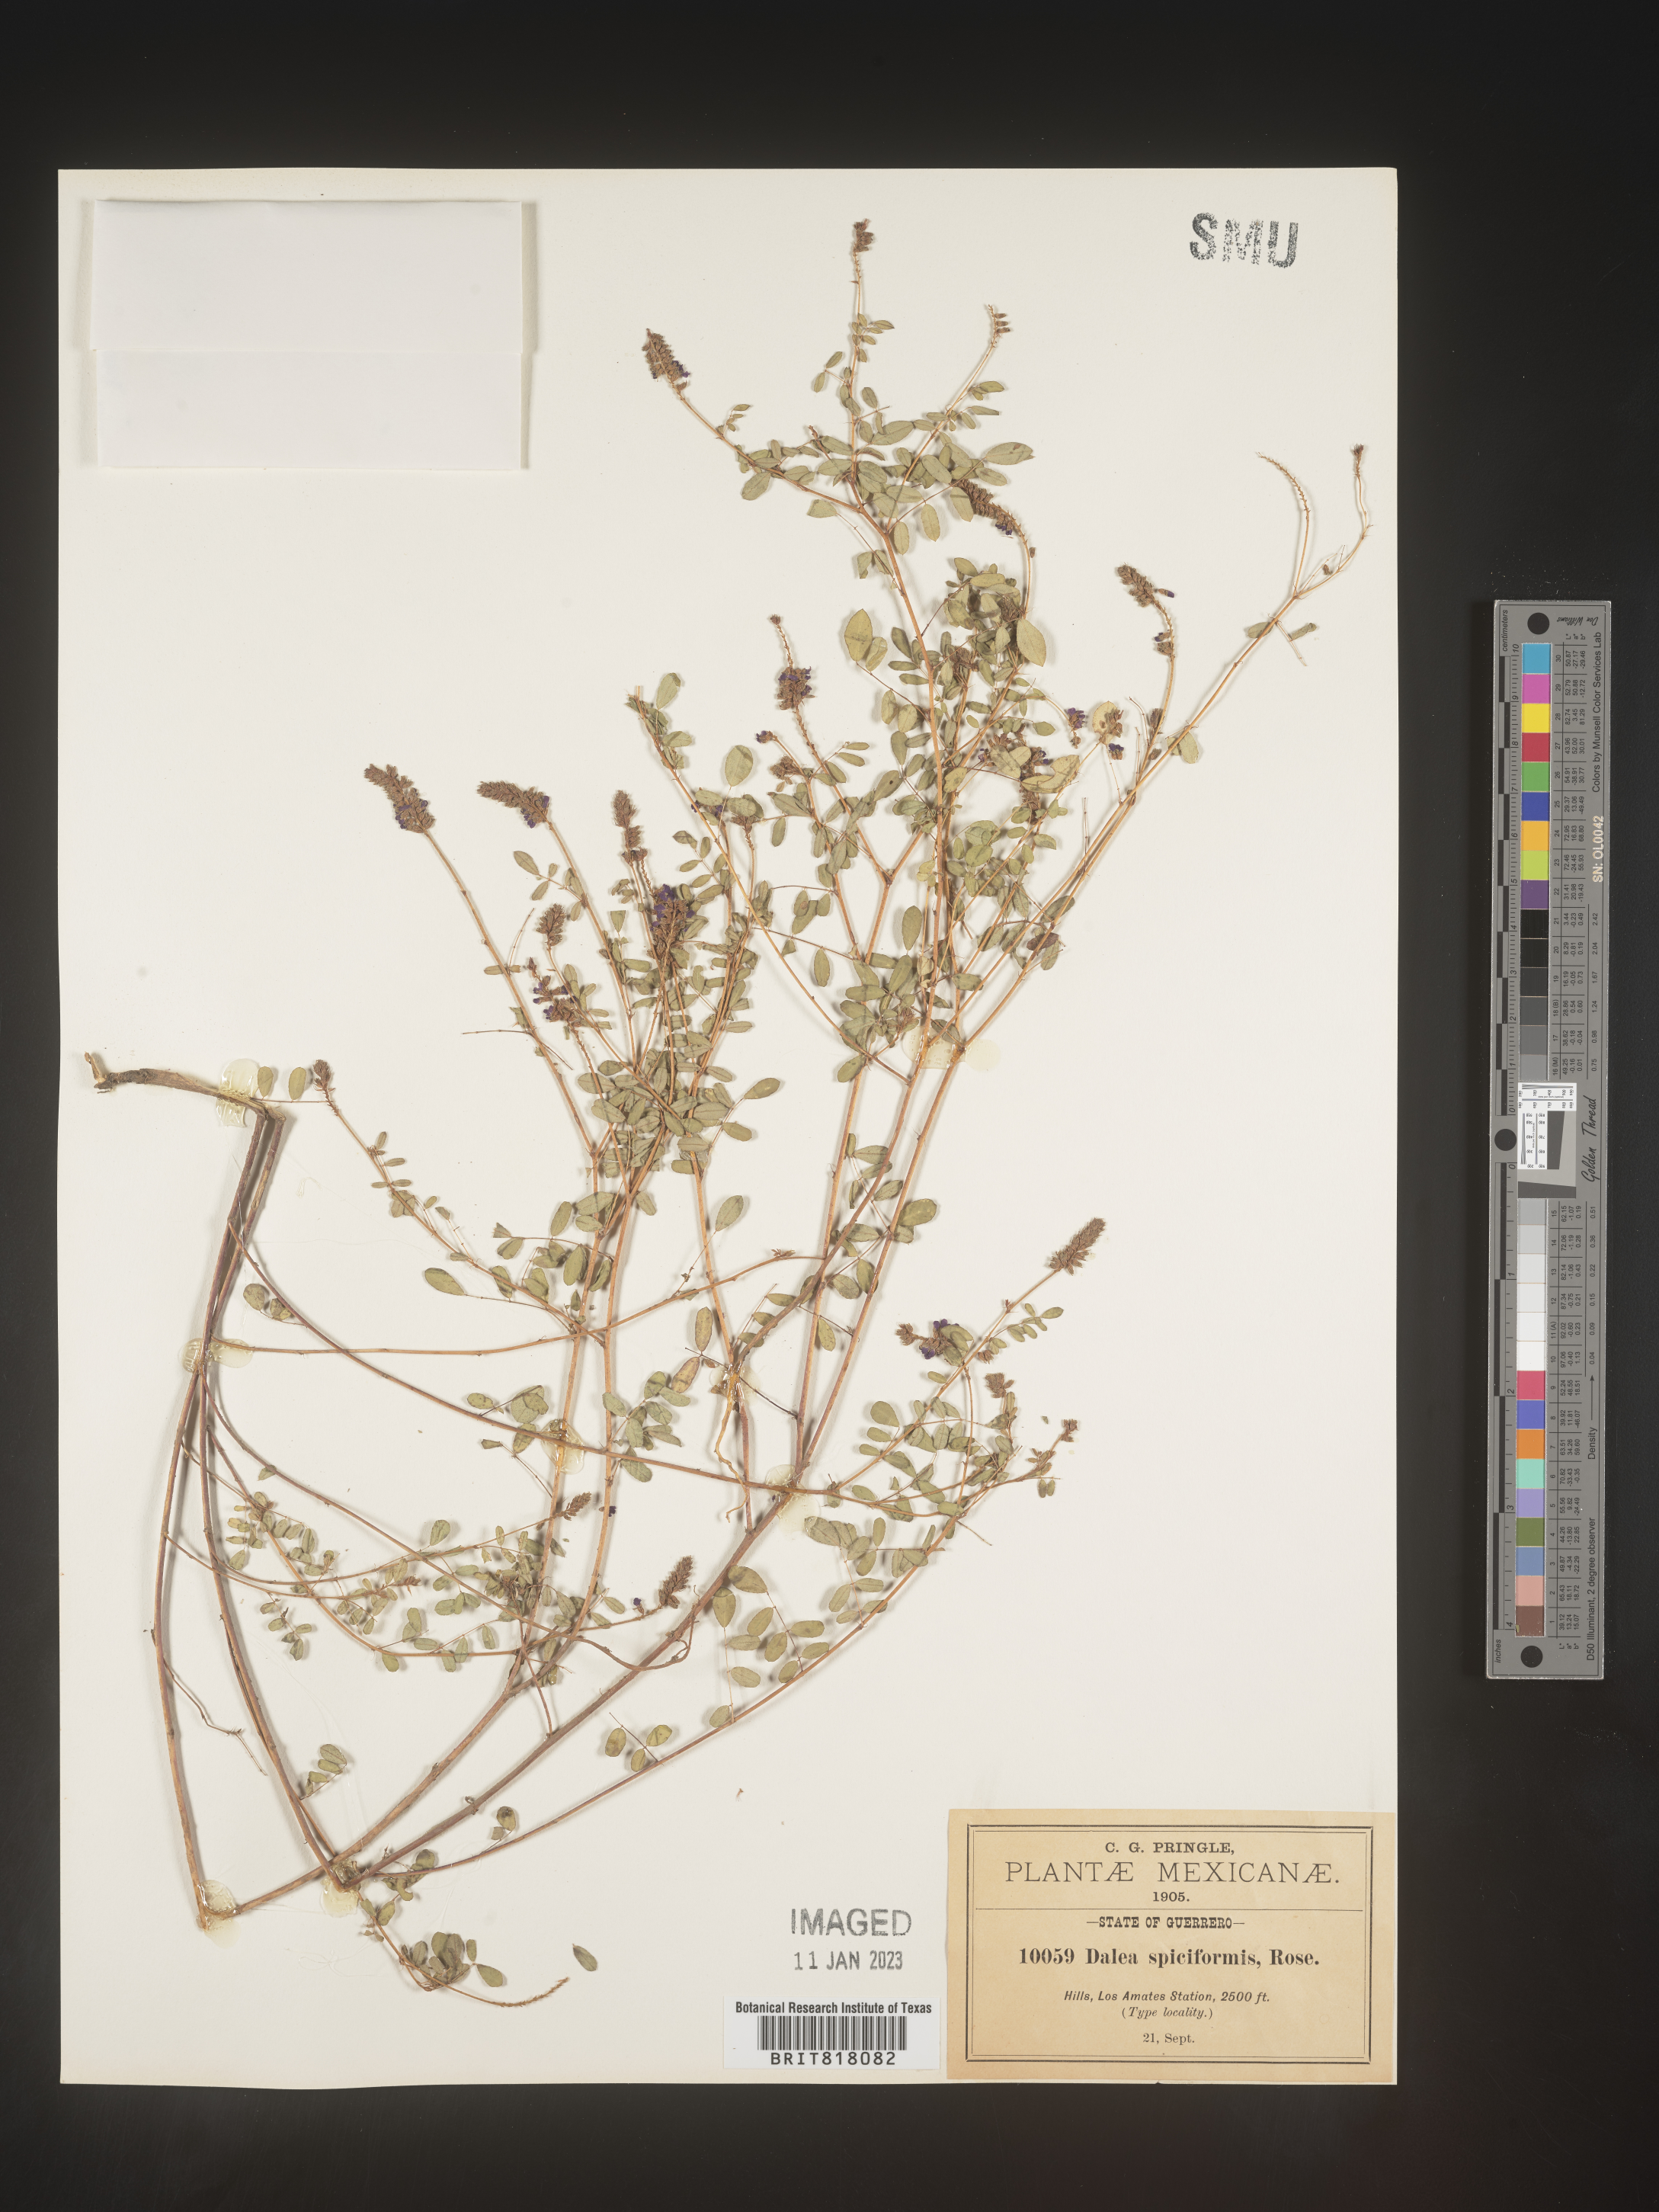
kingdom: Plantae
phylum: Tracheophyta
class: Magnoliopsida
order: Fabales
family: Fabaceae
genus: Dalea
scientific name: Dalea
